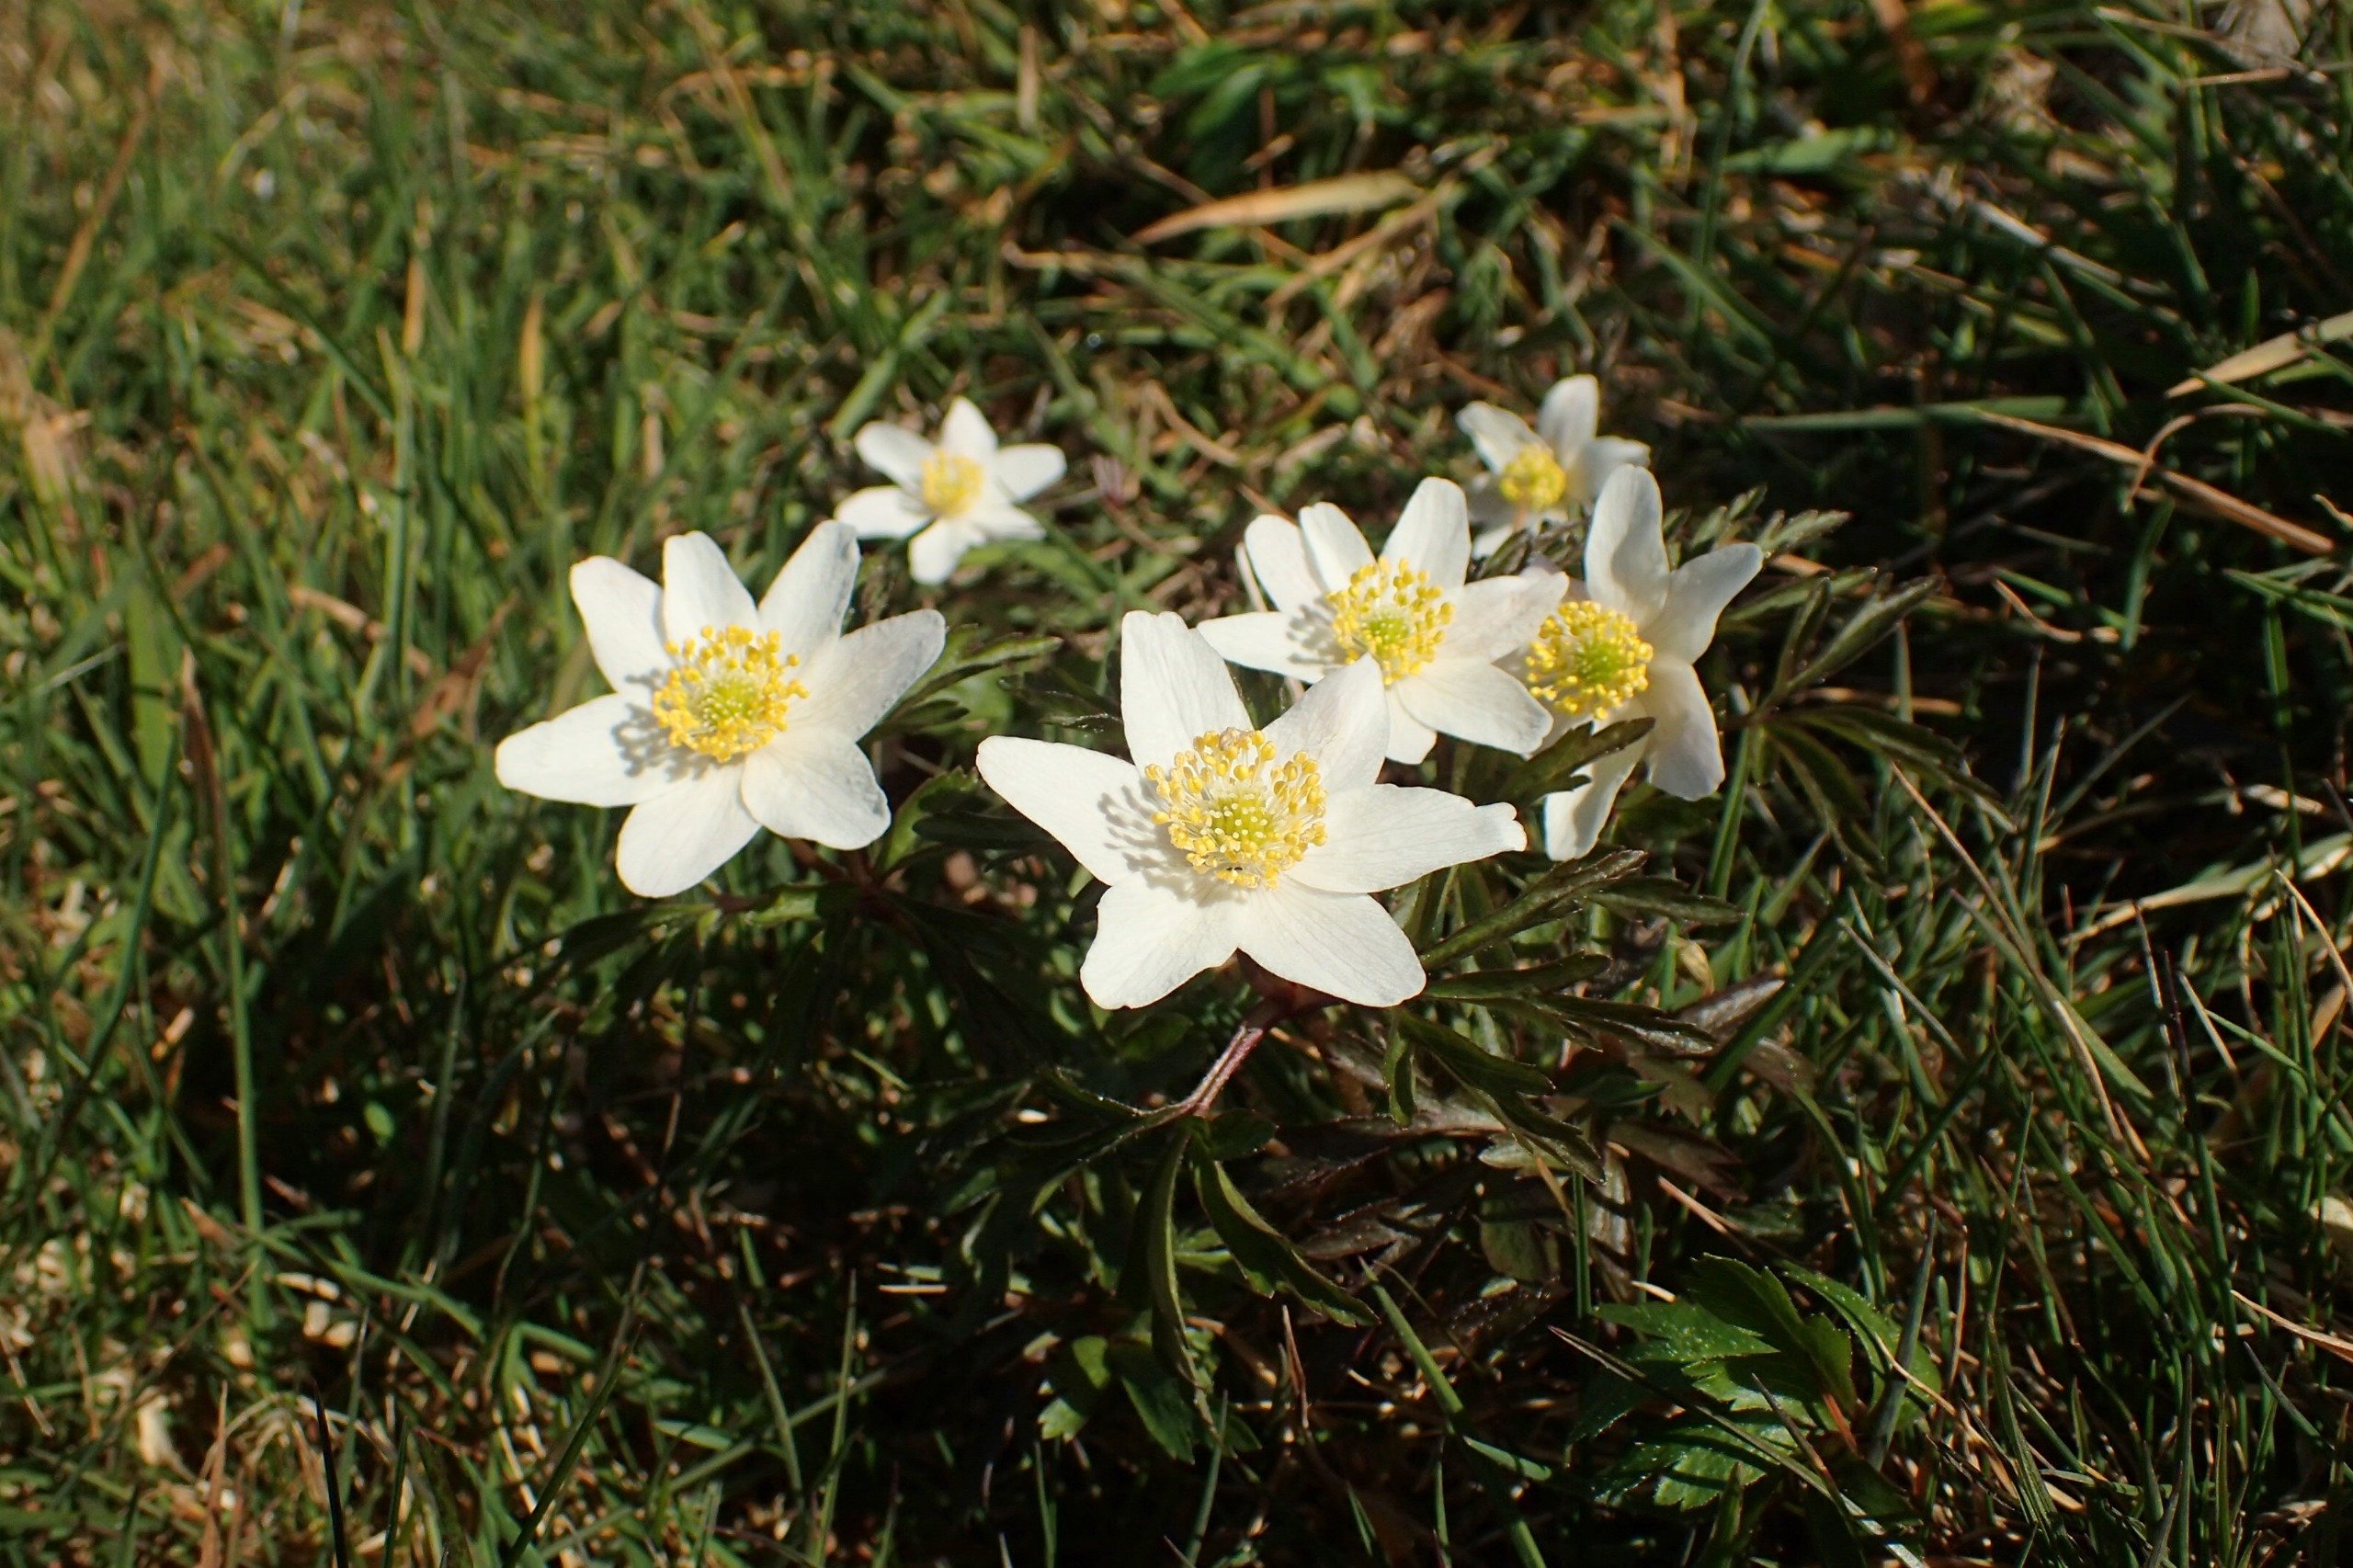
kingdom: Plantae
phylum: Tracheophyta
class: Magnoliopsida
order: Ranunculales
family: Ranunculaceae
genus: Anemone
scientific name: Anemone nemorosa
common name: Hvid anemone
